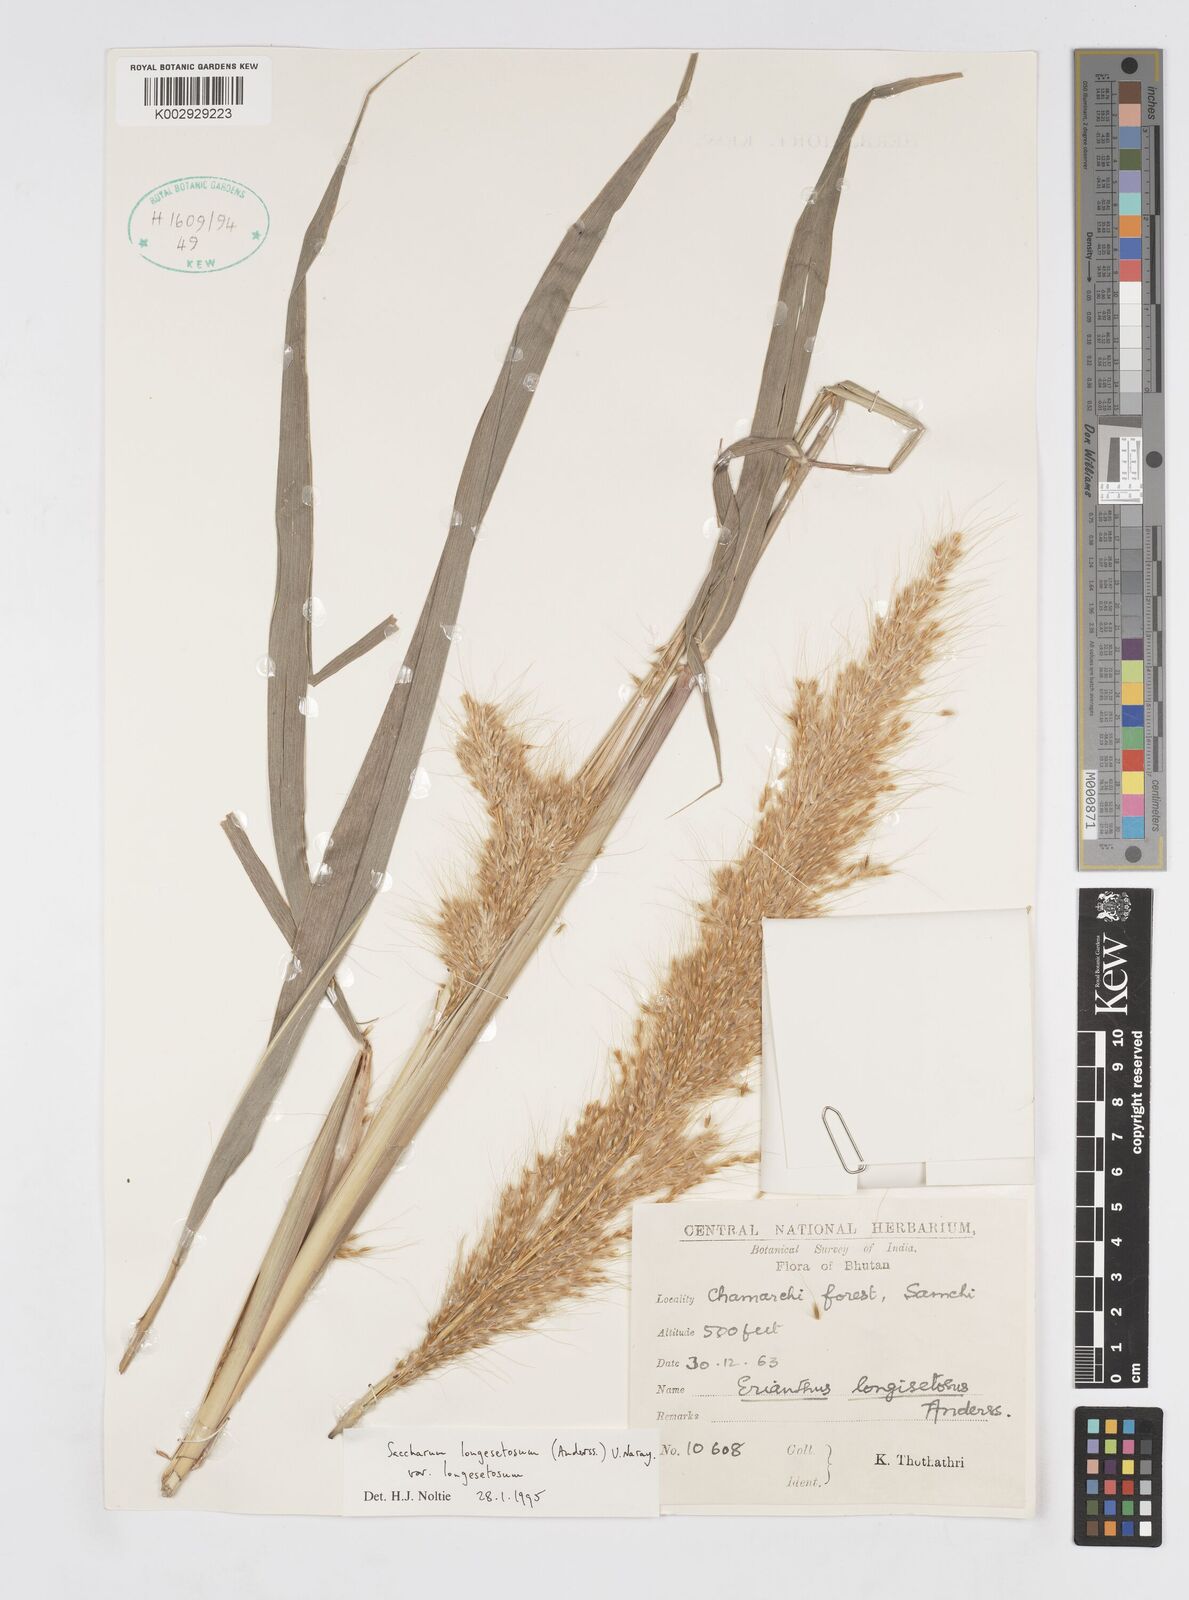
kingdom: Plantae
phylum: Tracheophyta
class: Liliopsida
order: Poales
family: Poaceae
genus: Melinis
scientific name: Melinis longiseta
